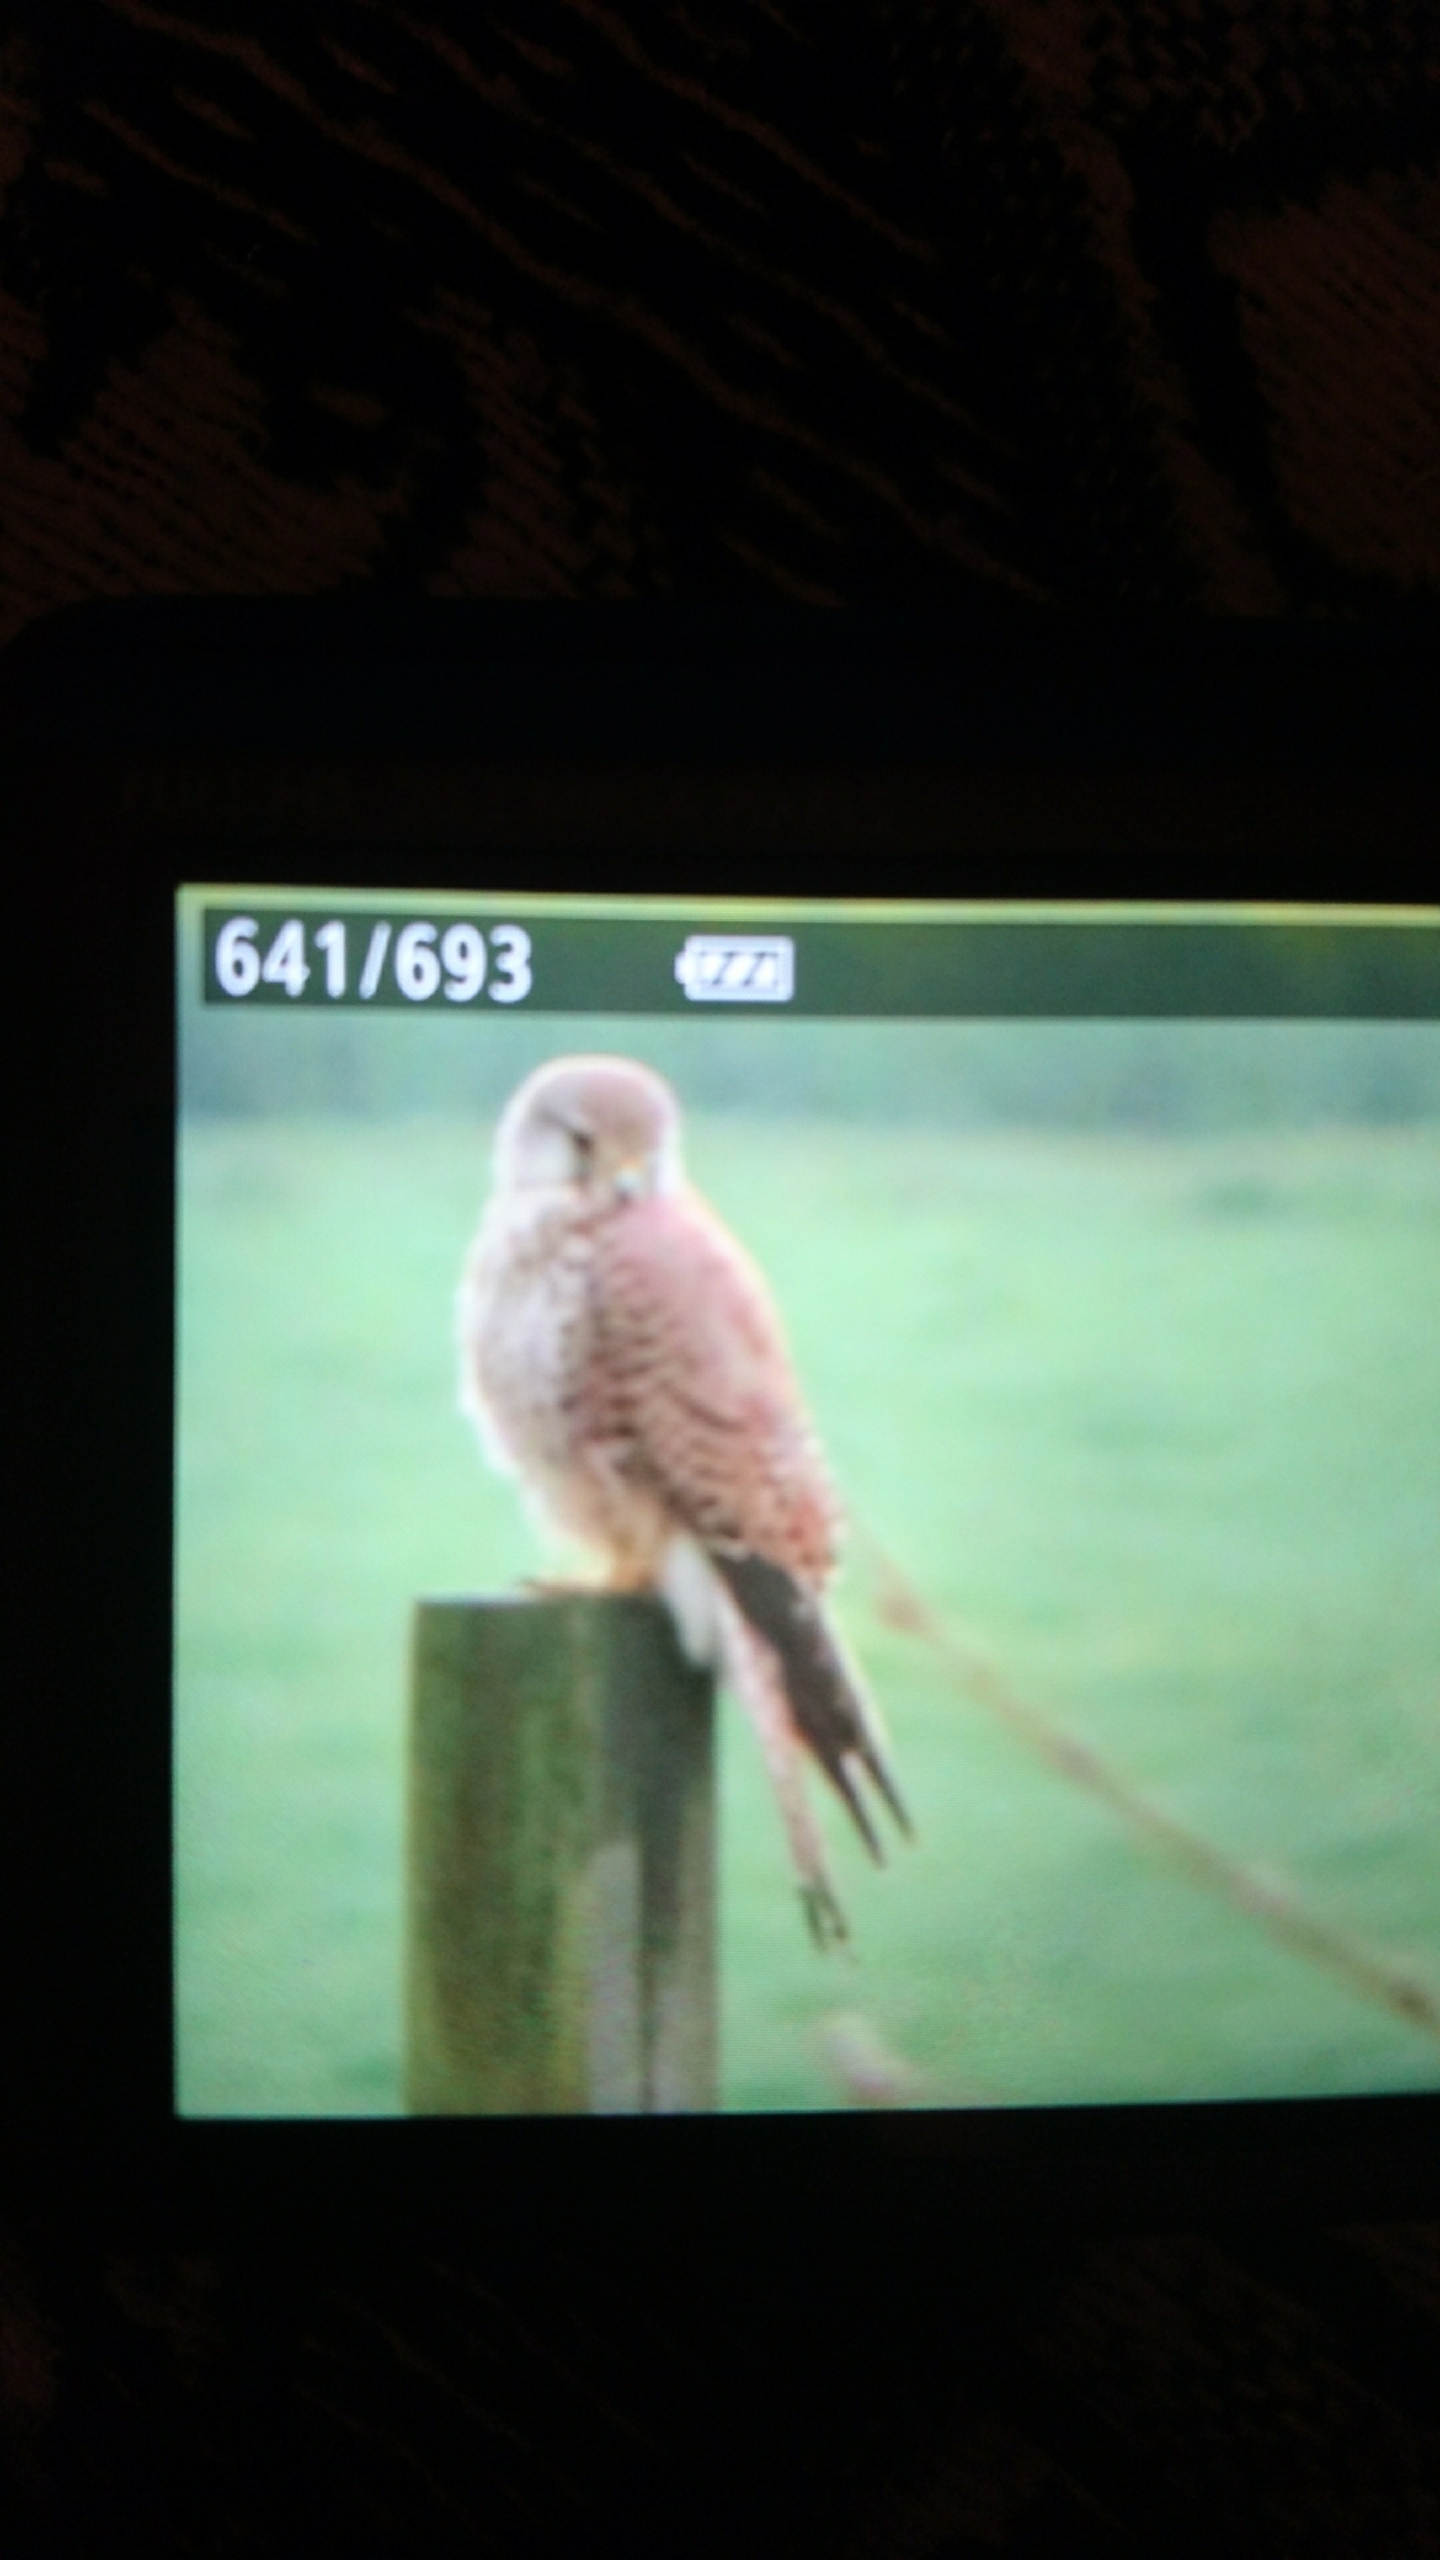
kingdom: Animalia
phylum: Chordata
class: Aves
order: Falconiformes
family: Falconidae
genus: Falco
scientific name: Falco tinnunculus
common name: Tårnfalk
